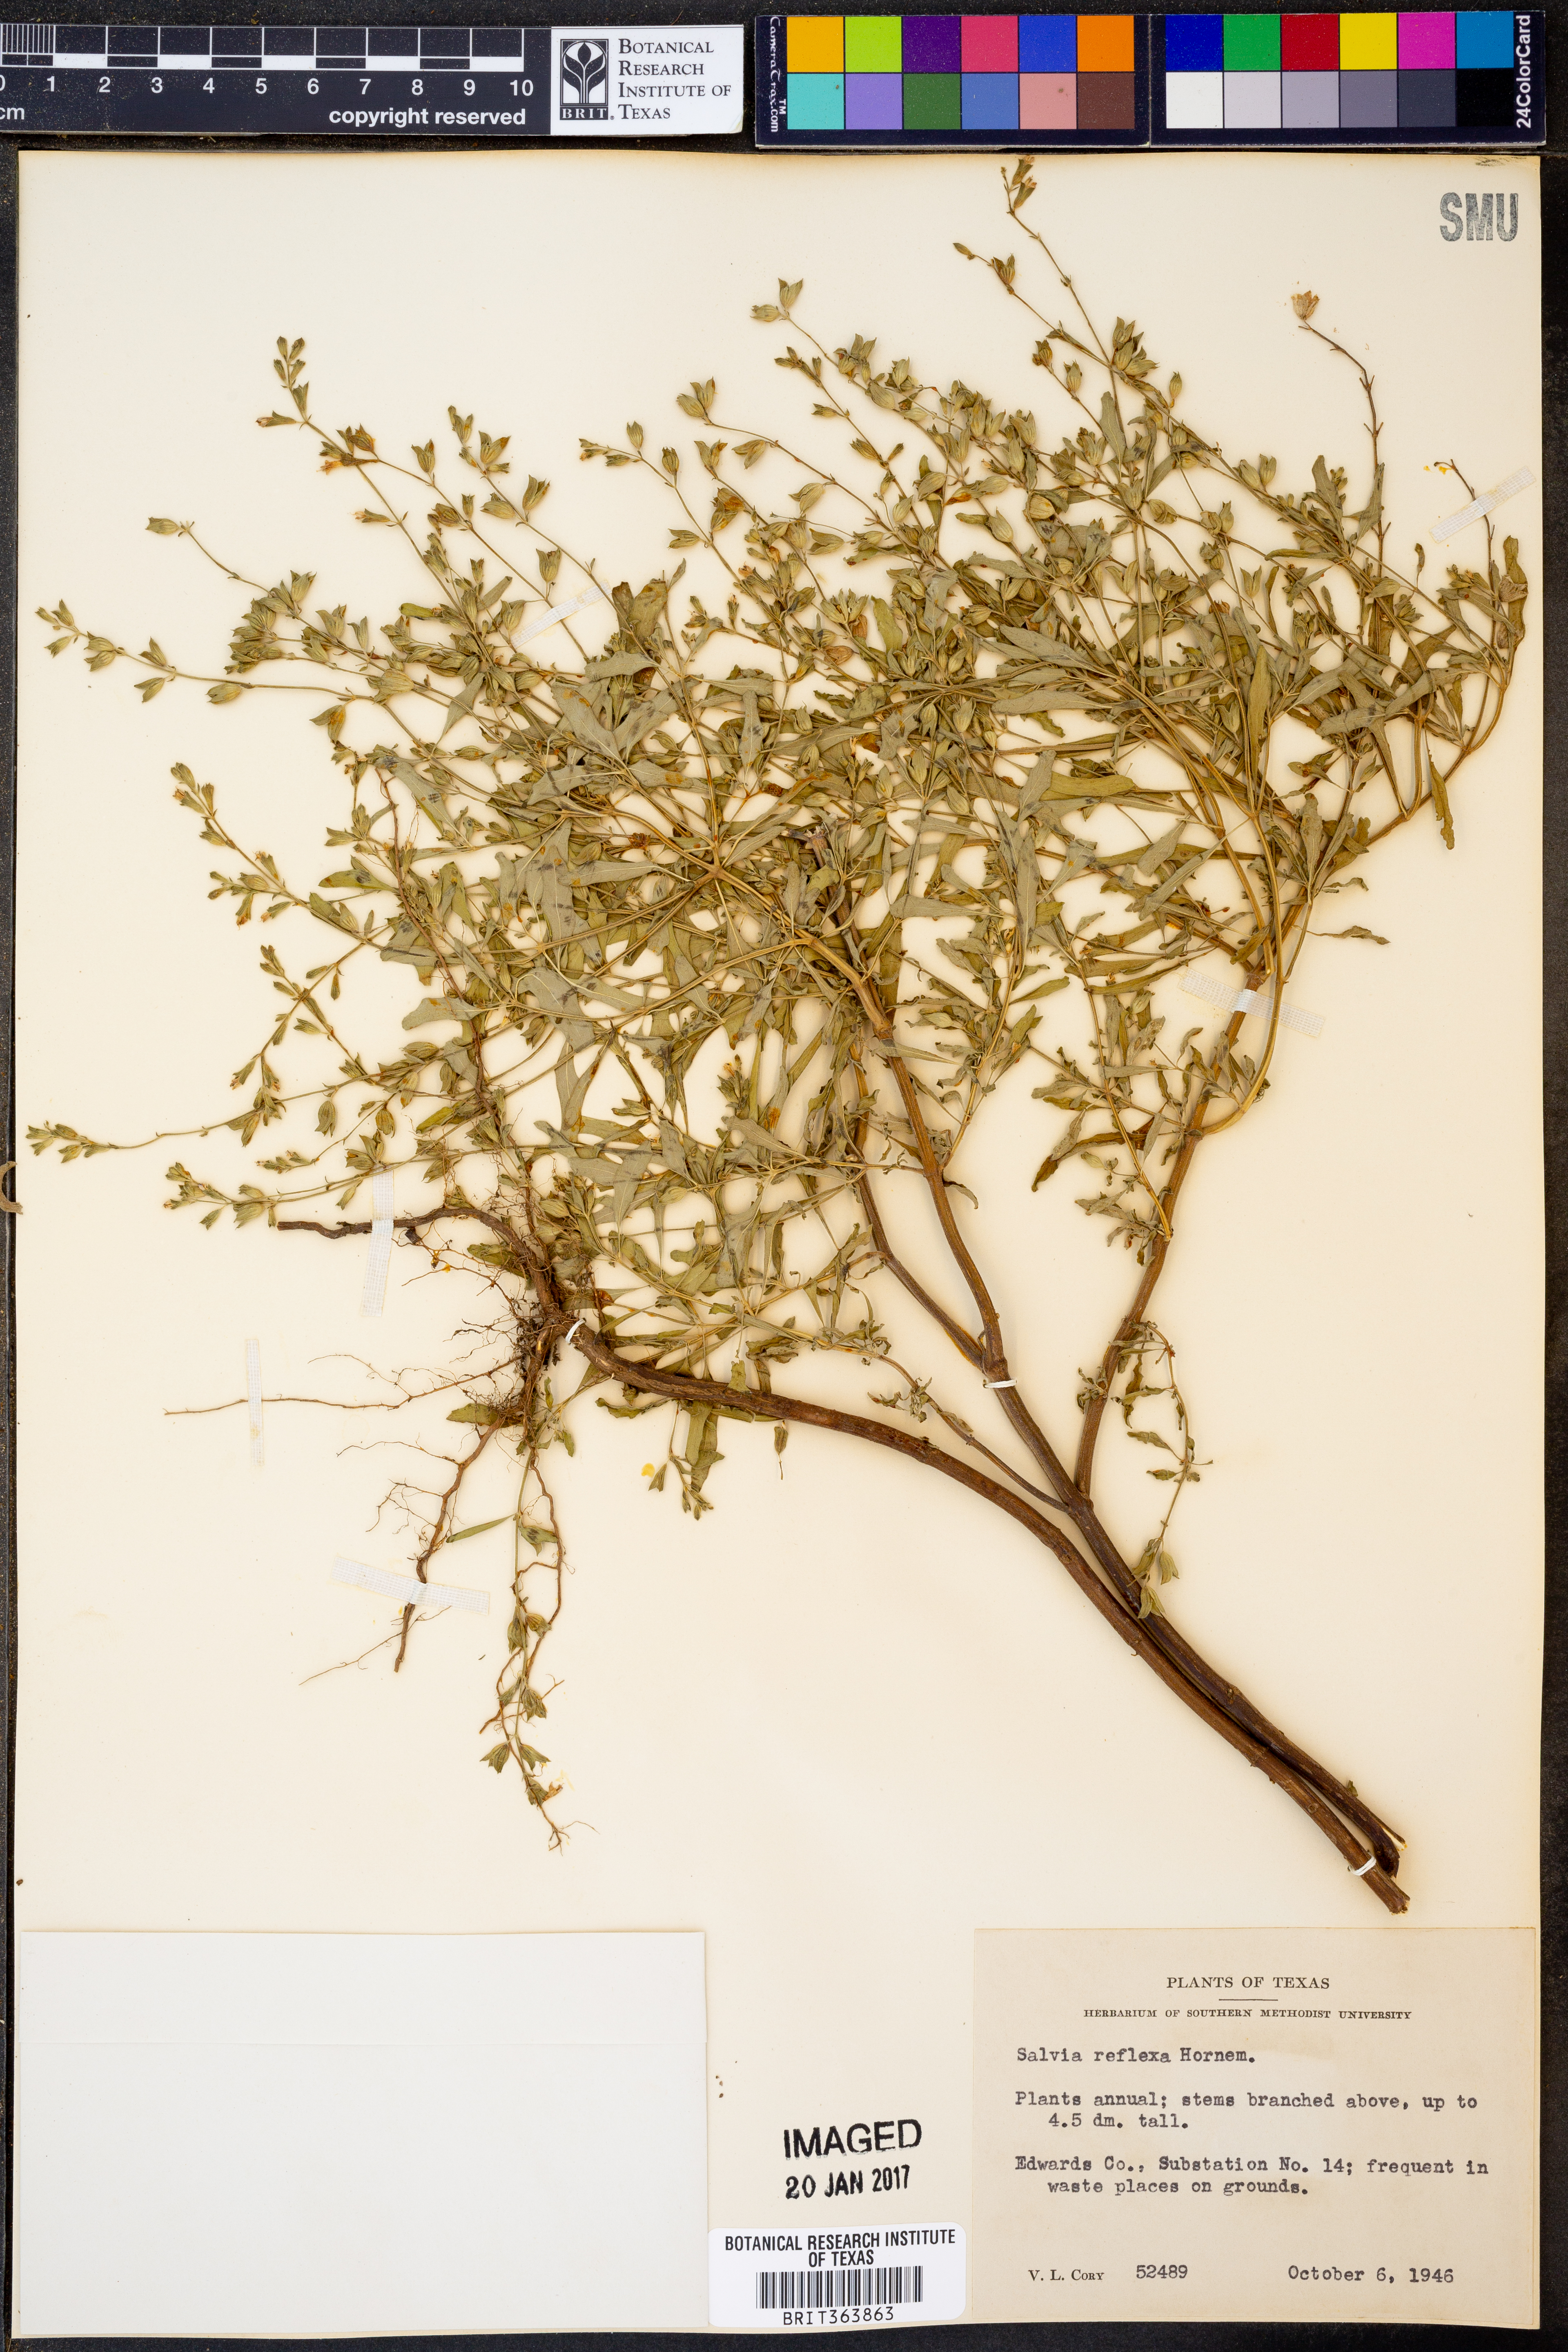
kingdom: Plantae
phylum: Tracheophyta
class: Magnoliopsida
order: Lamiales
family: Lamiaceae
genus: Salvia
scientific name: Salvia reflexa
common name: Mintweed
